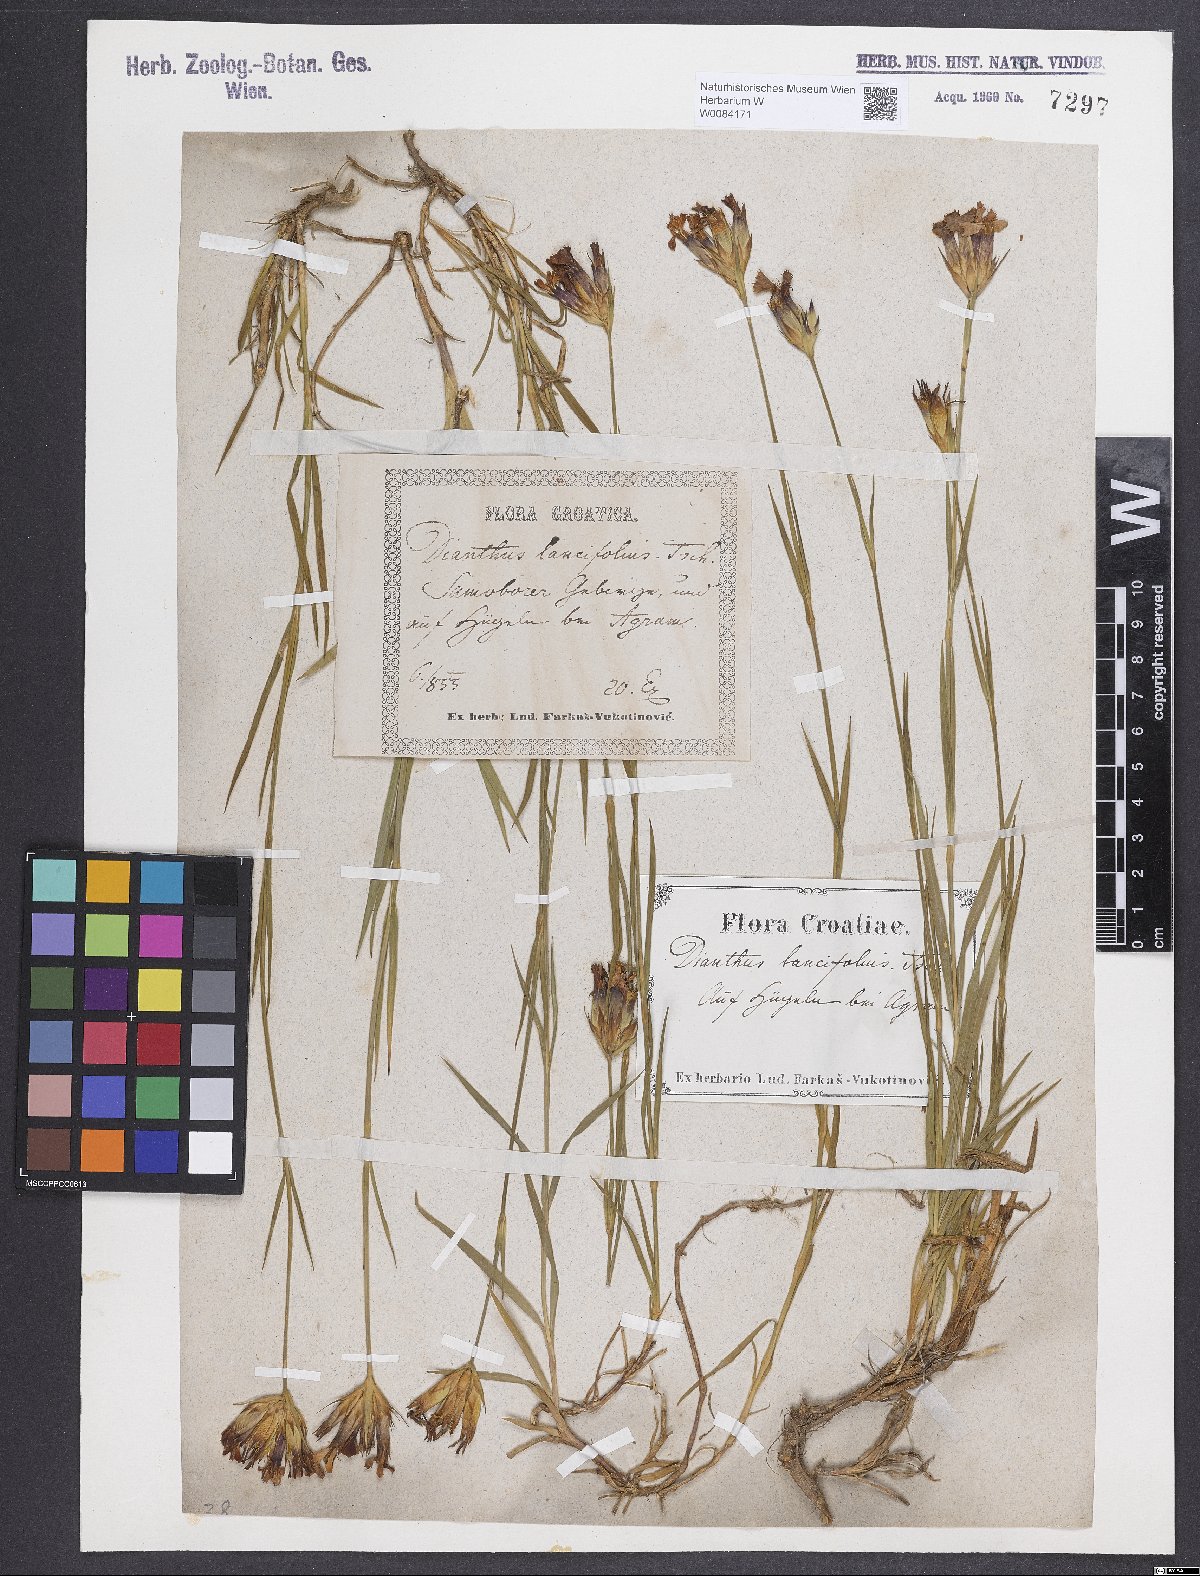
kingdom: Plantae
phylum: Tracheophyta
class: Magnoliopsida
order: Caryophyllales
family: Caryophyllaceae
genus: Dianthus
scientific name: Dianthus trifasciculatus
